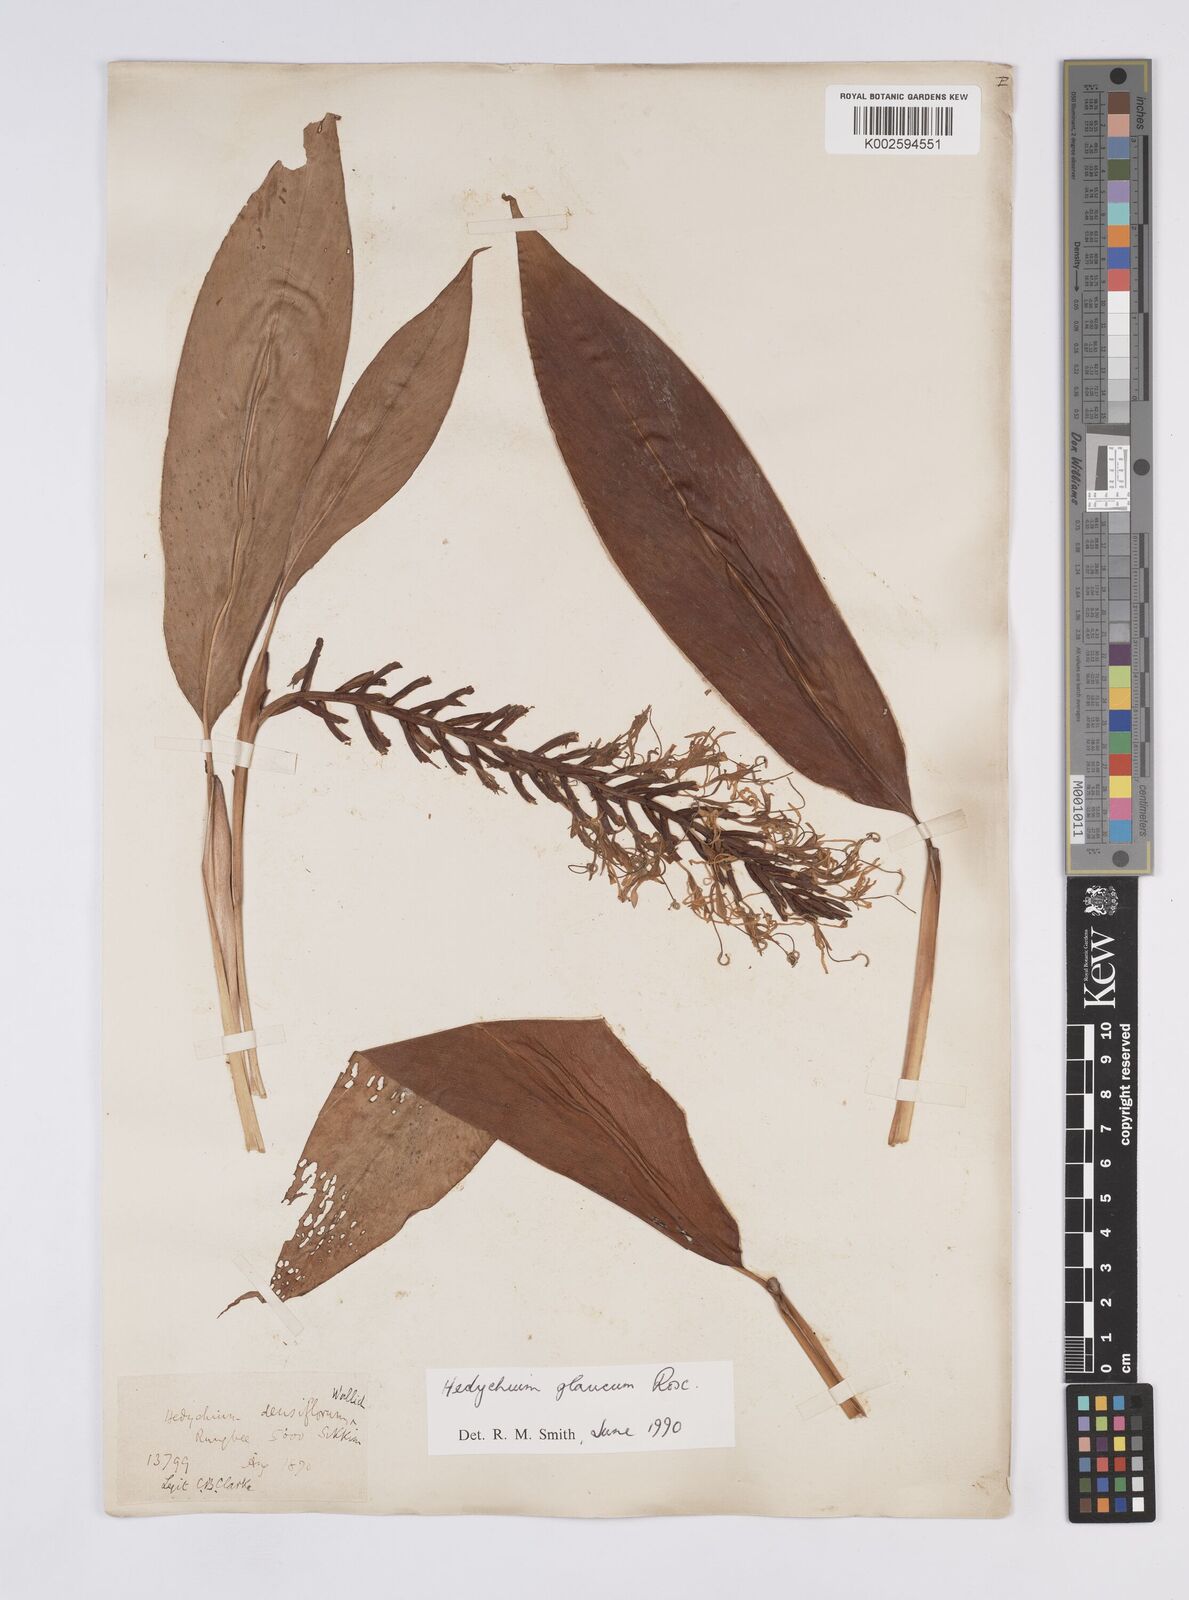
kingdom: Plantae
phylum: Tracheophyta
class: Liliopsida
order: Zingiberales
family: Zingiberaceae
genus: Hedychium
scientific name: Hedychium glaucum
